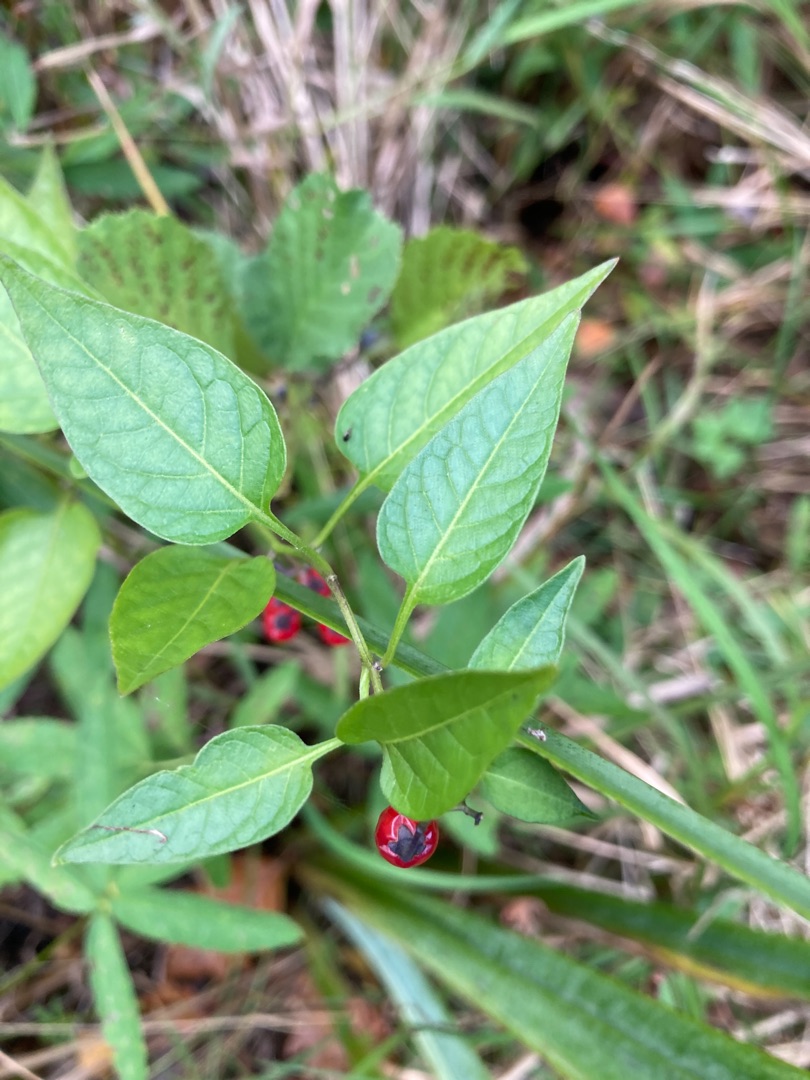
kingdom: Plantae
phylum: Tracheophyta
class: Magnoliopsida
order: Solanales
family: Solanaceae
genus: Solanum
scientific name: Solanum dulcamara
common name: Bittersød natskygge
